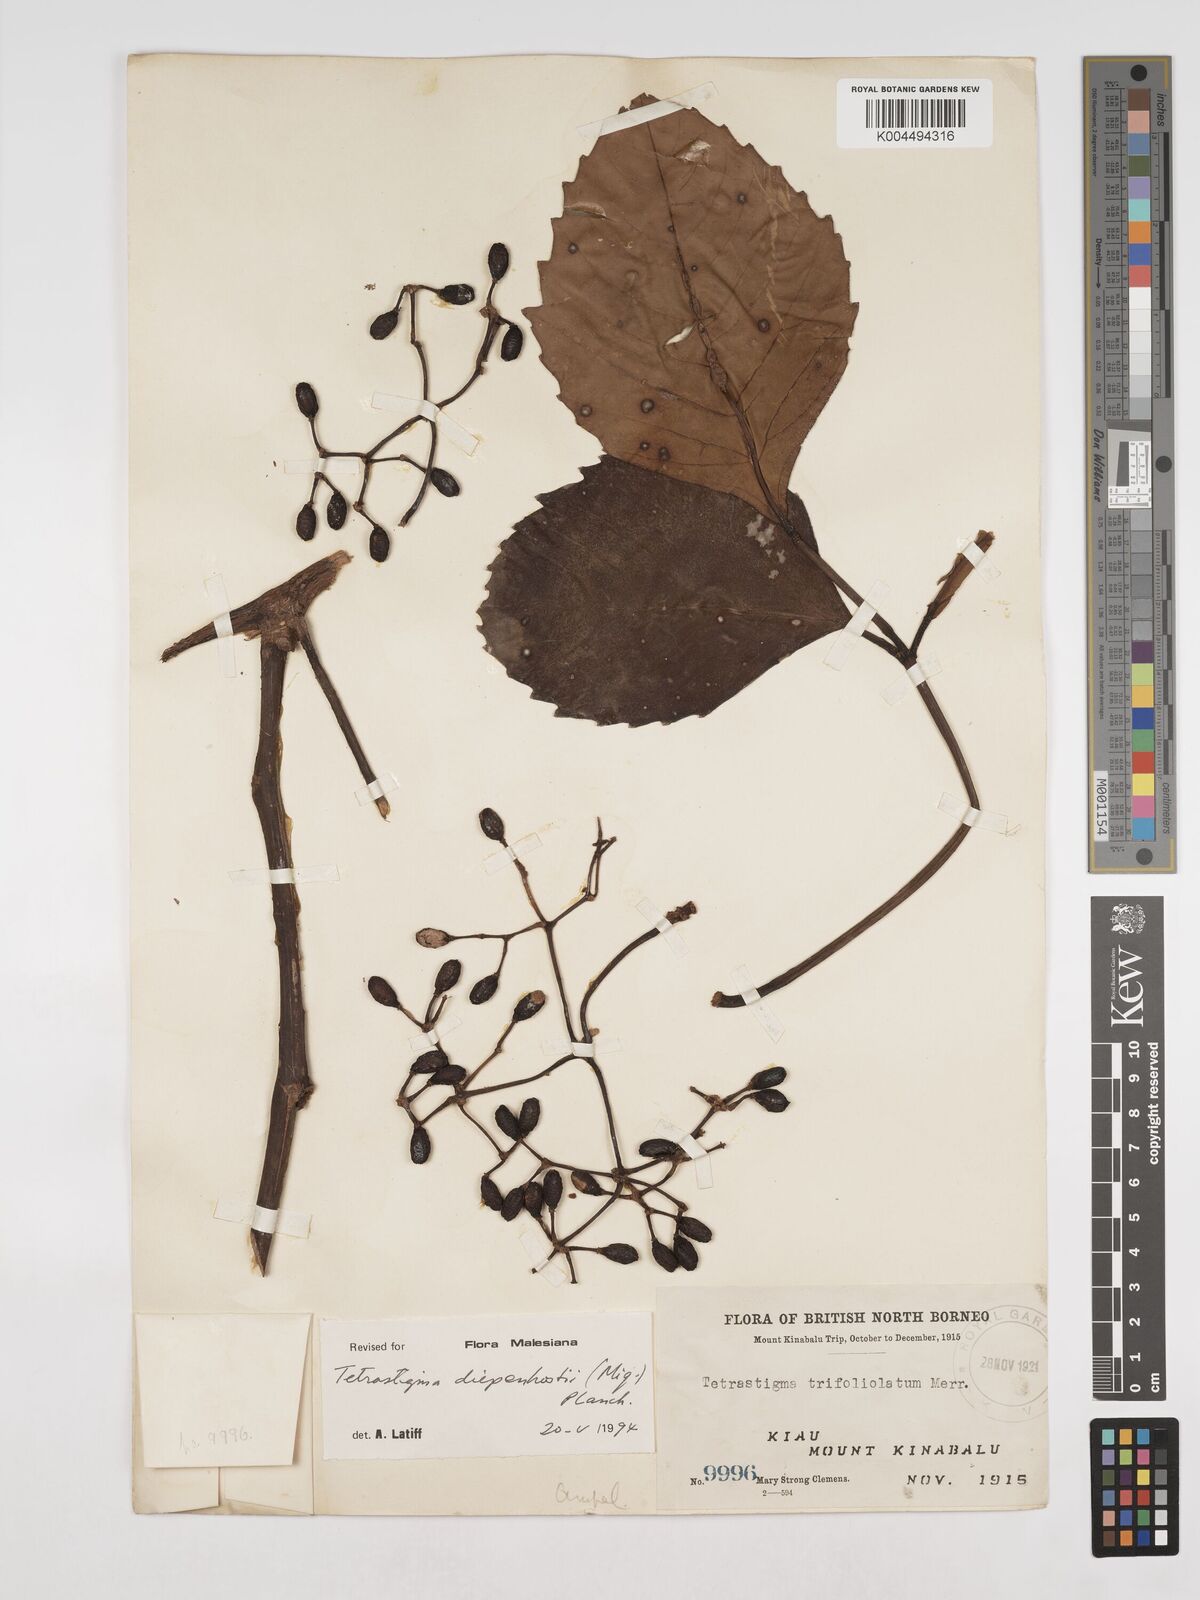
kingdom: Plantae
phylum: Tracheophyta
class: Magnoliopsida
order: Vitales
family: Vitaceae
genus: Tetrastigma
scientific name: Tetrastigma diepenhorstii
